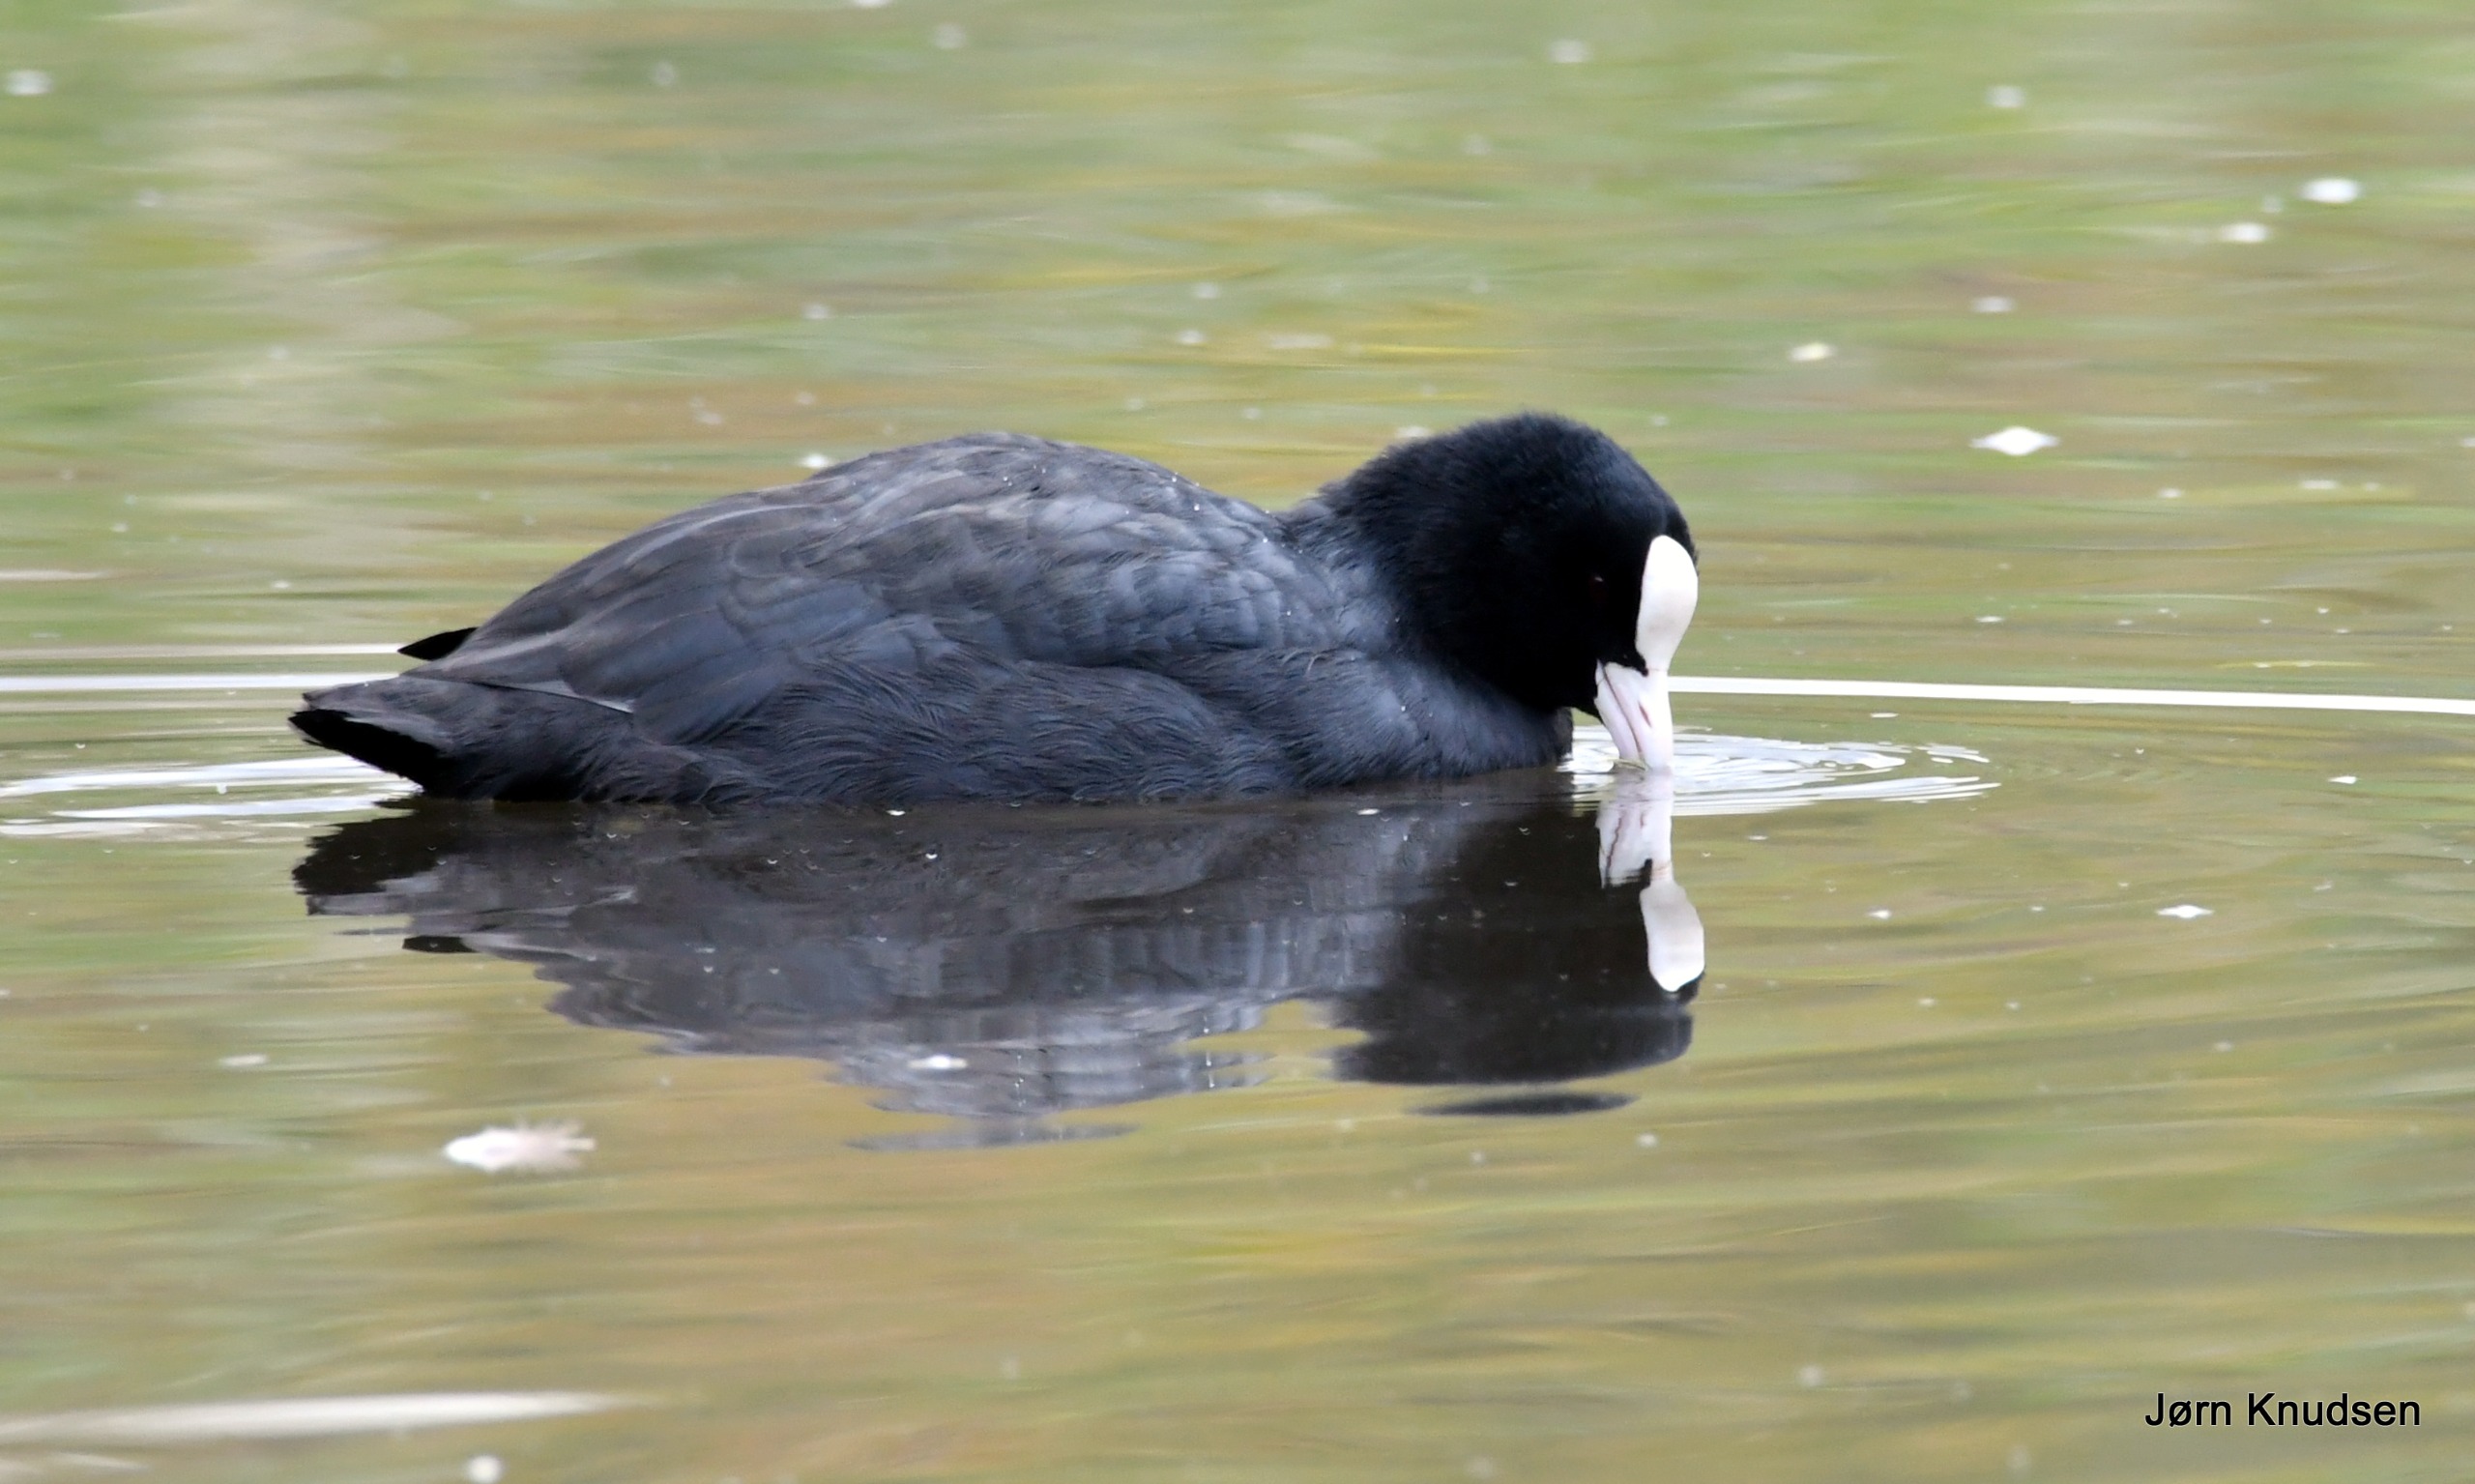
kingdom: Animalia
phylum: Chordata
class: Aves
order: Gruiformes
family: Rallidae
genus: Fulica
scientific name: Fulica atra
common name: Blishøne
